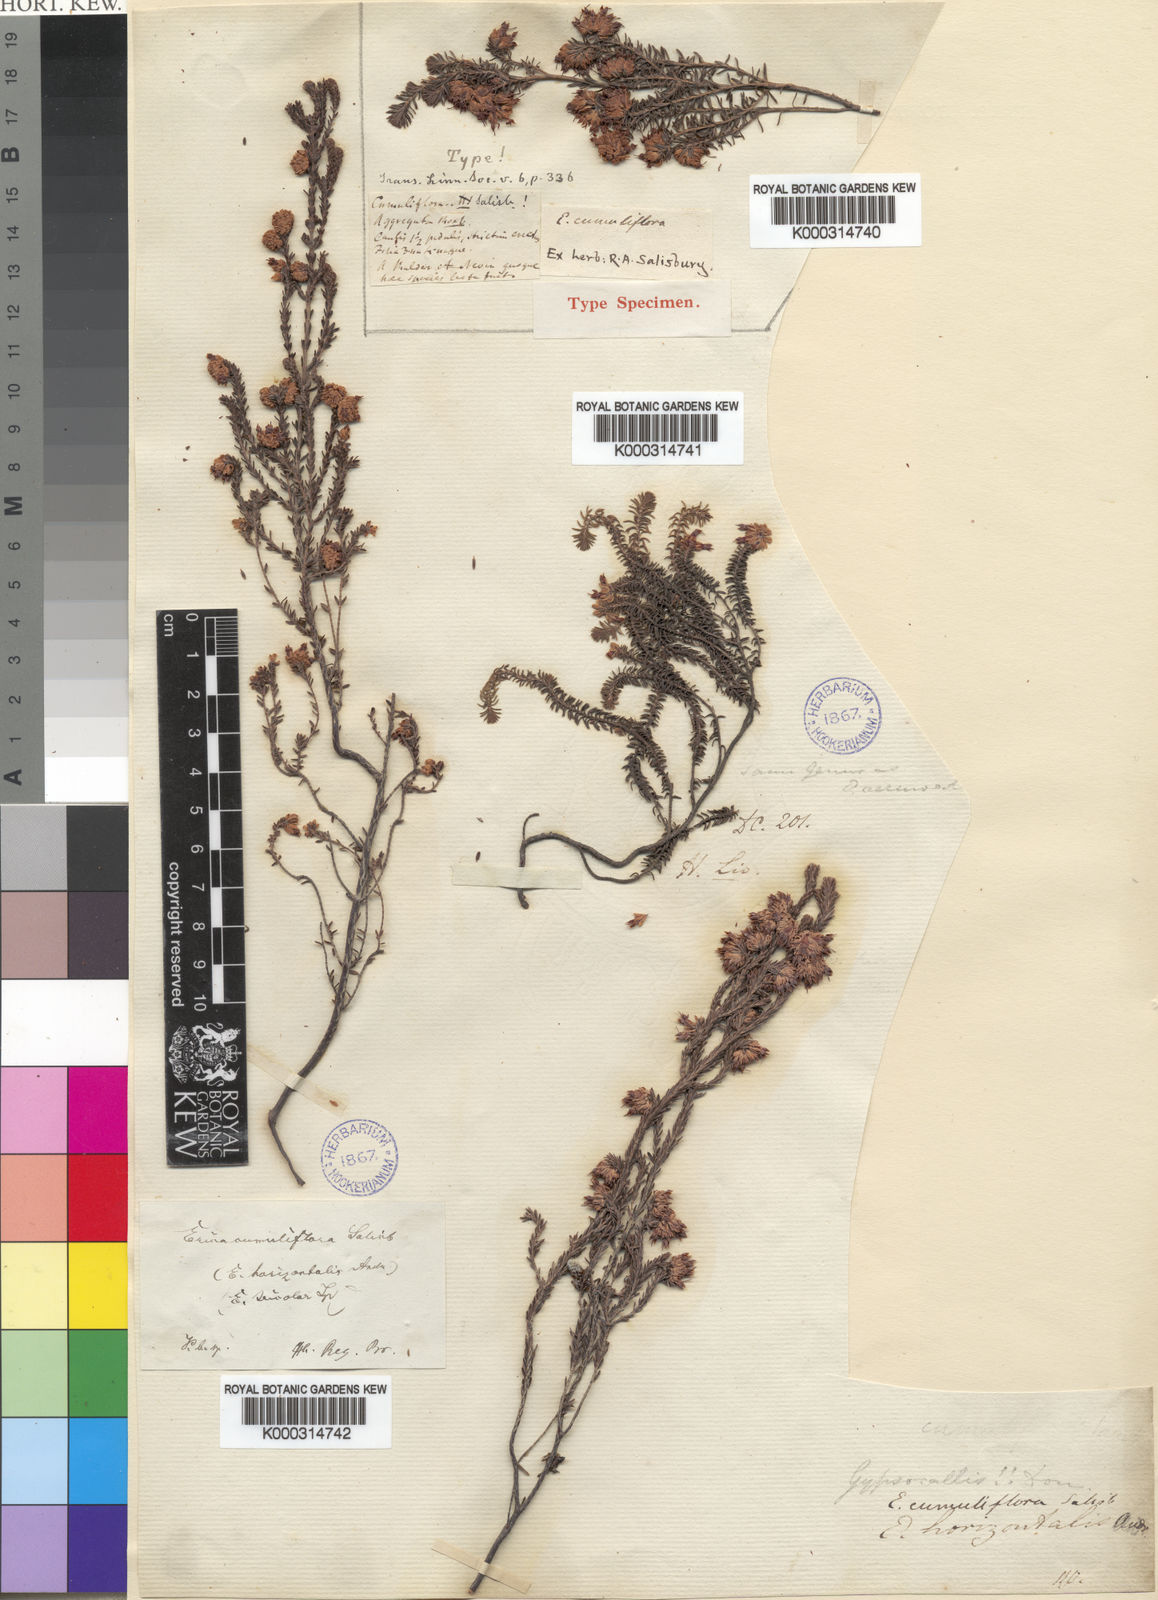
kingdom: Plantae
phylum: Tracheophyta
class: Magnoliopsida
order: Ericales
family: Ericaceae
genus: Erica
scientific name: Erica cumuliflora
